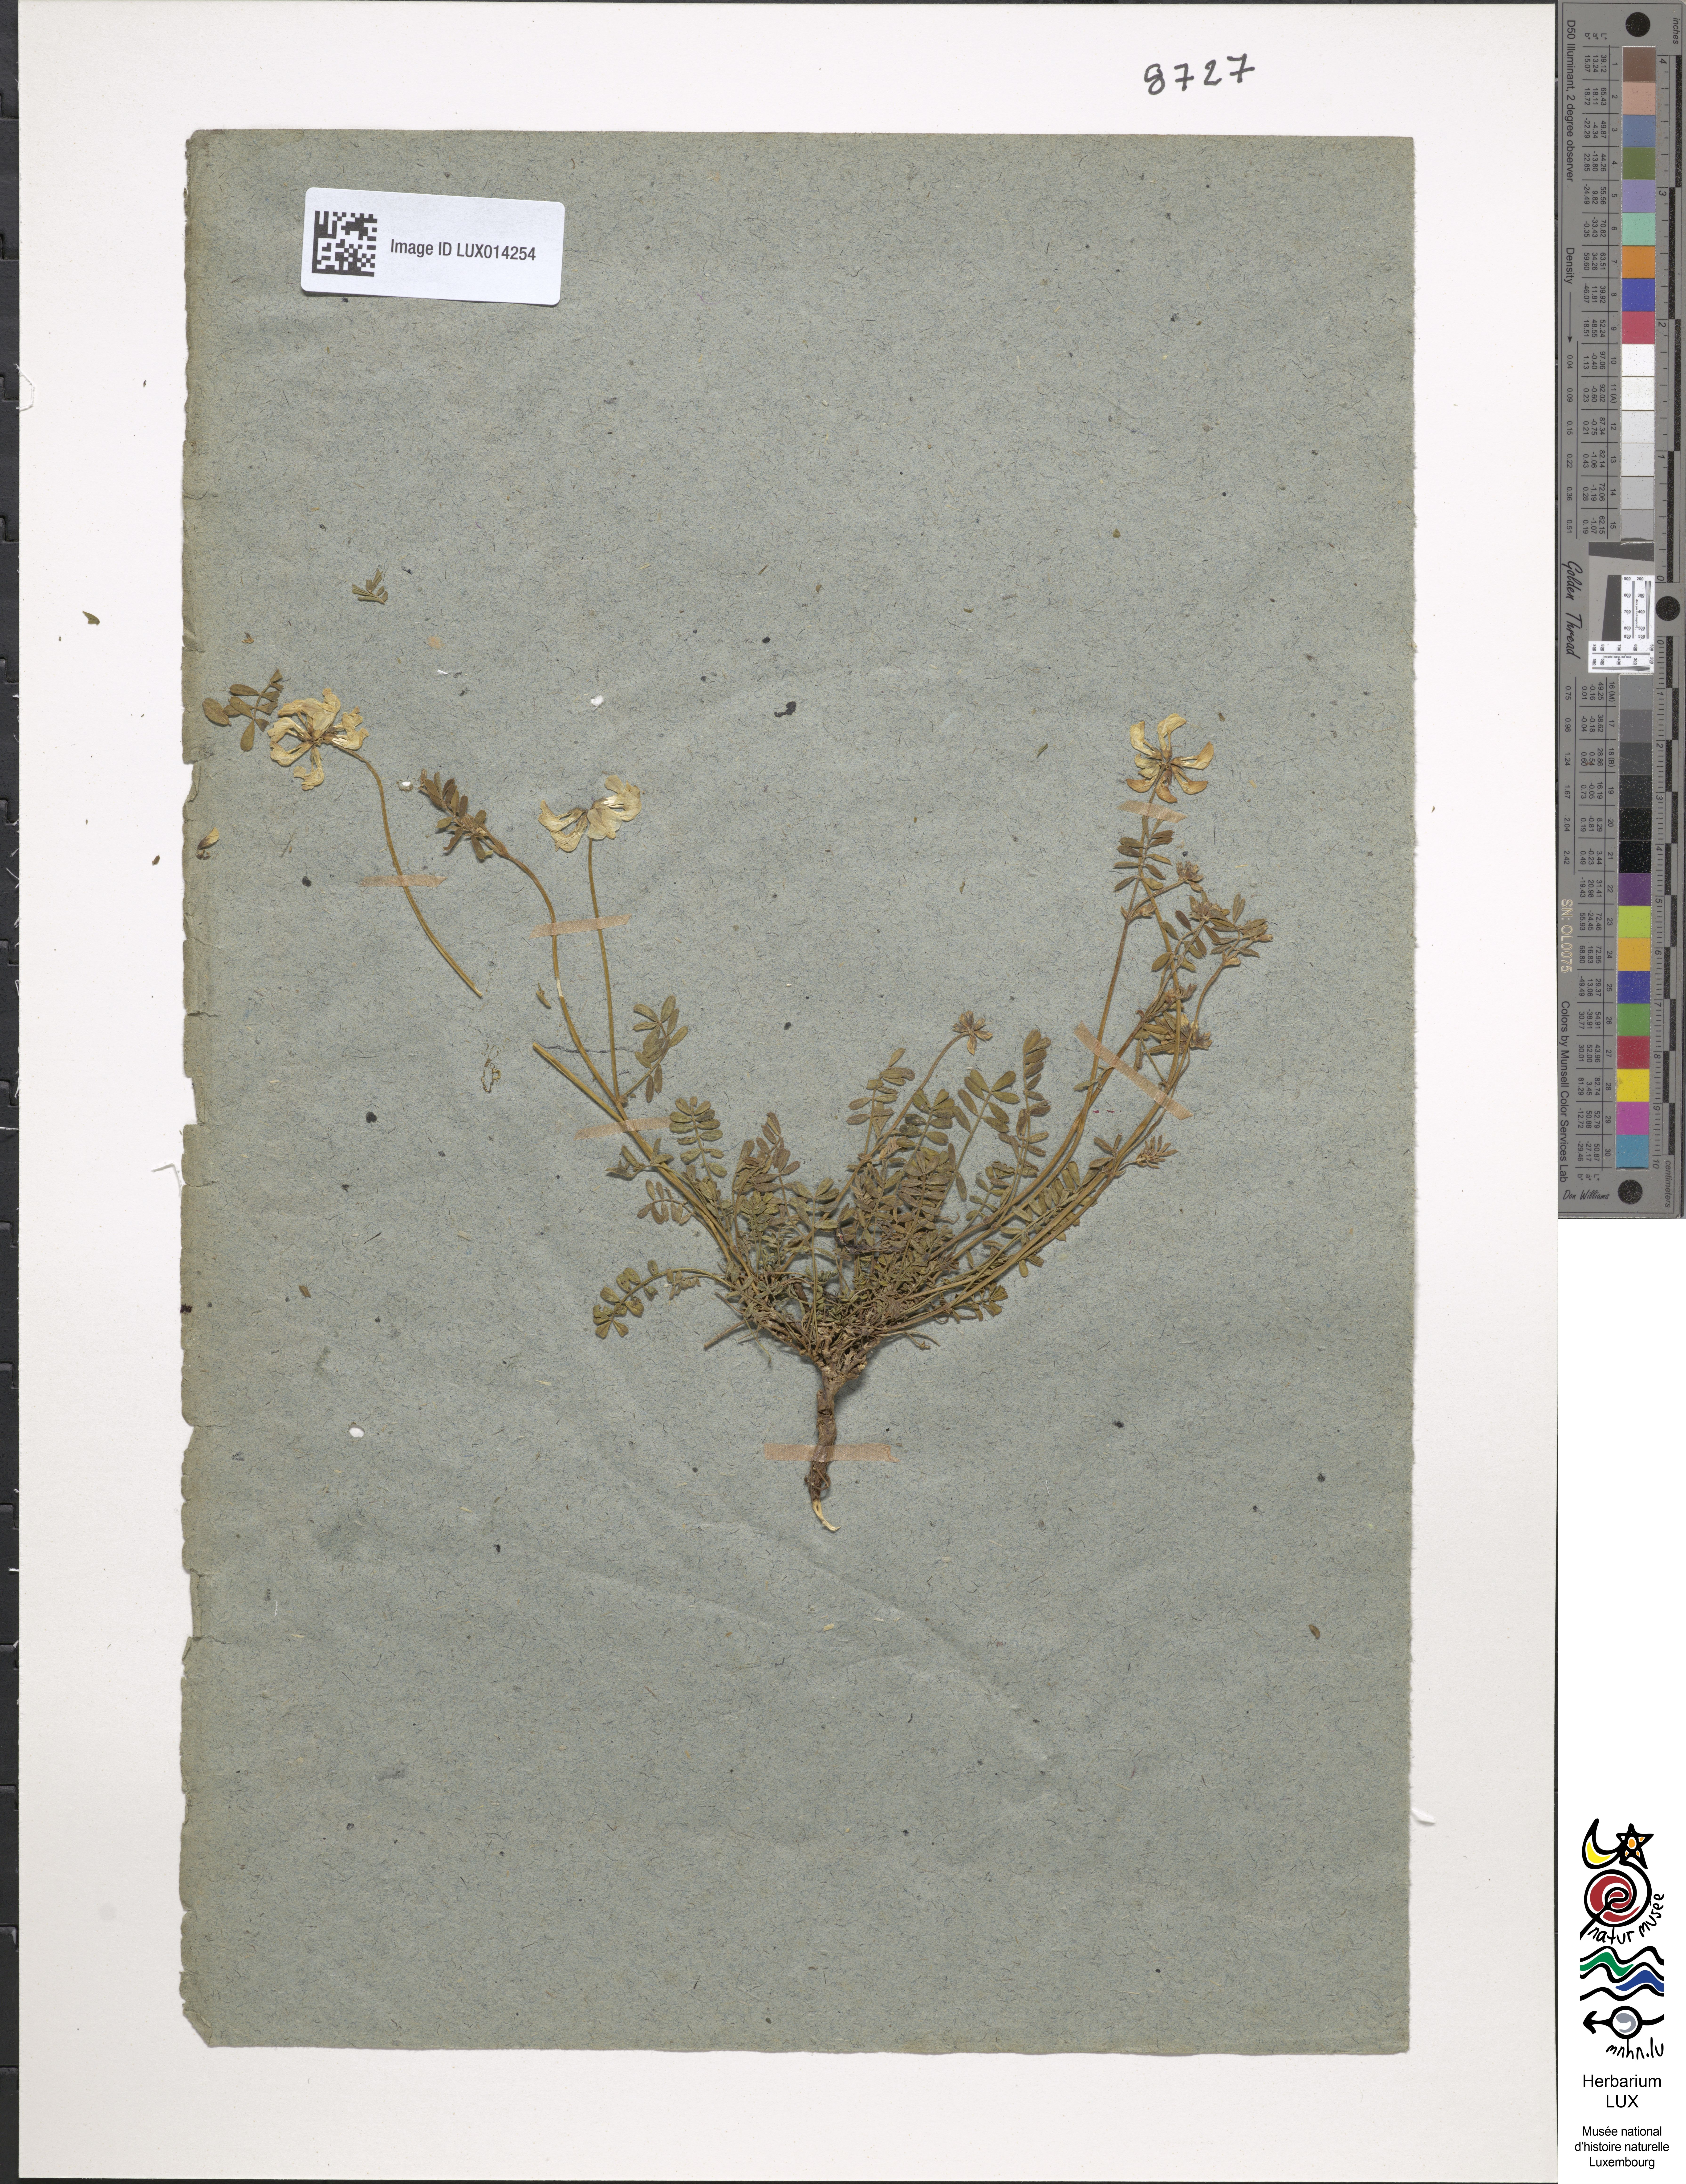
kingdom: Plantae
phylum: Tracheophyta
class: Magnoliopsida
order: Fabales
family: Fabaceae
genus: Hippocrepis
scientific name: Hippocrepis comosa
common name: Horseshoe vetch
